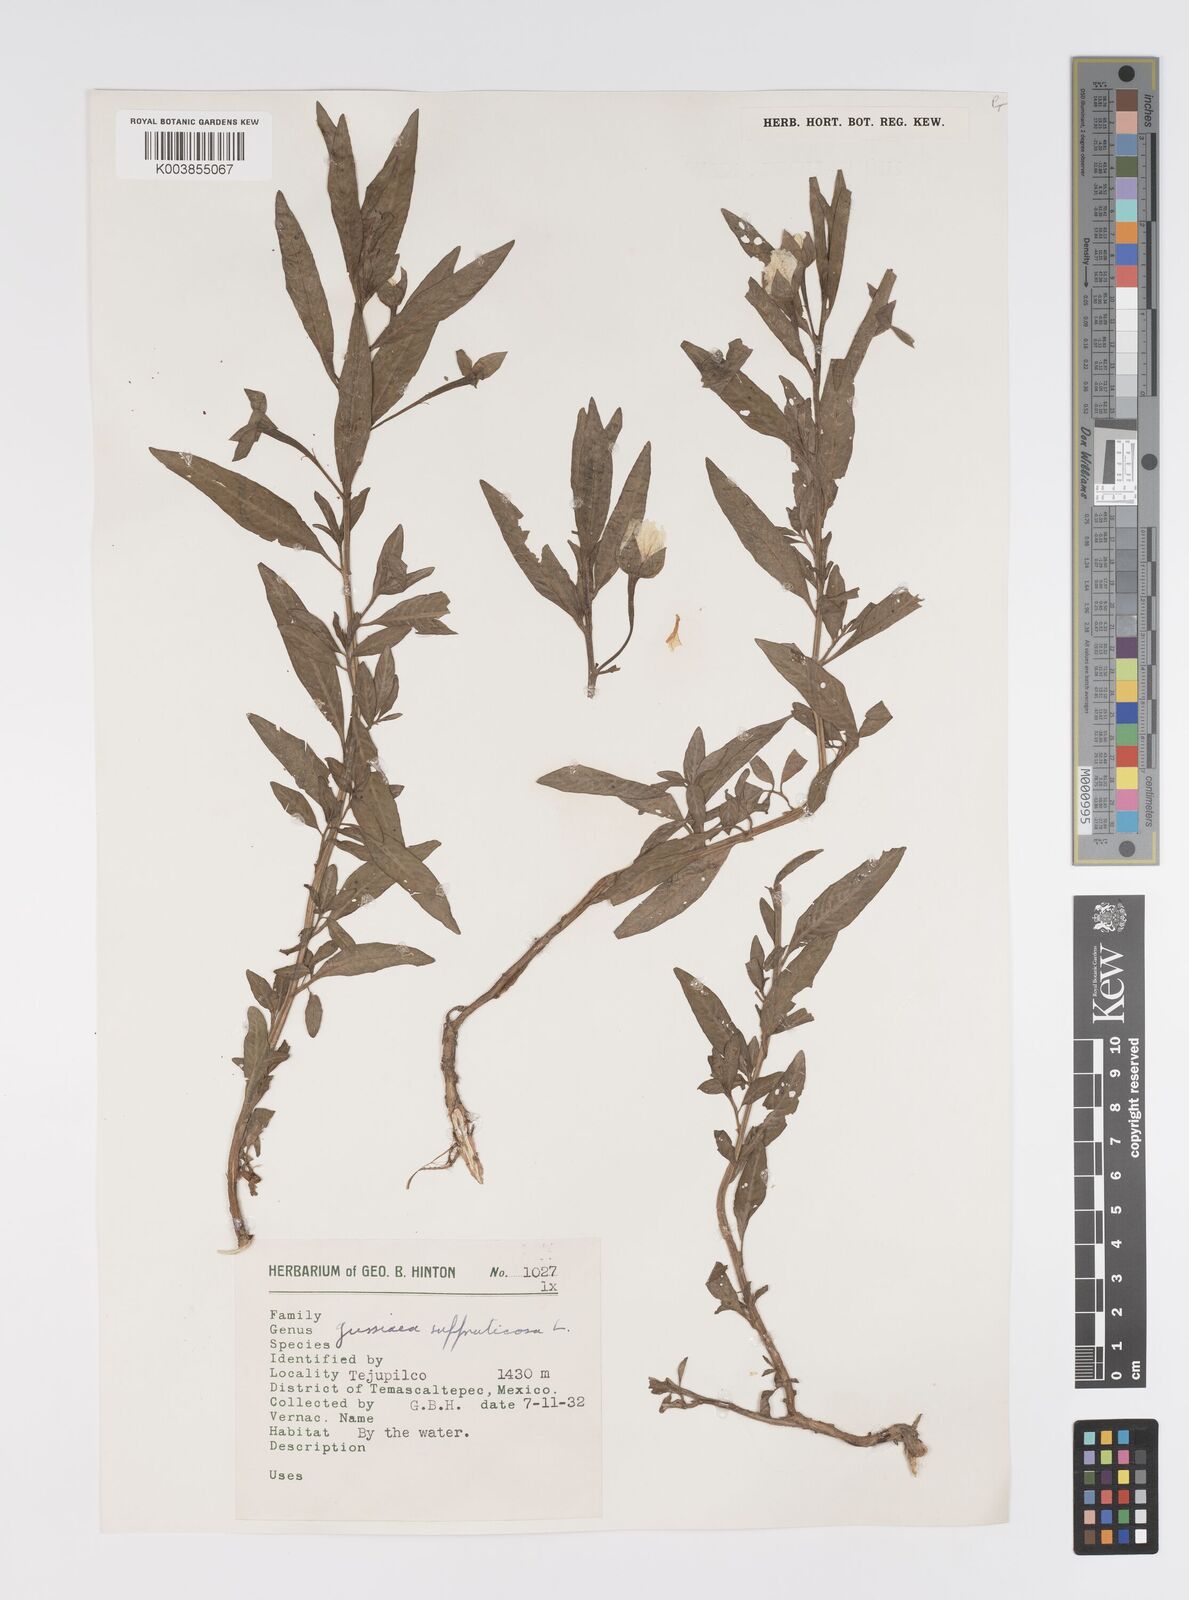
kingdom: Plantae
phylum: Tracheophyta
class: Magnoliopsida
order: Myrtales
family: Onagraceae
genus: Ludwigia
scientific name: Ludwigia octovalvis
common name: Water-primrose
